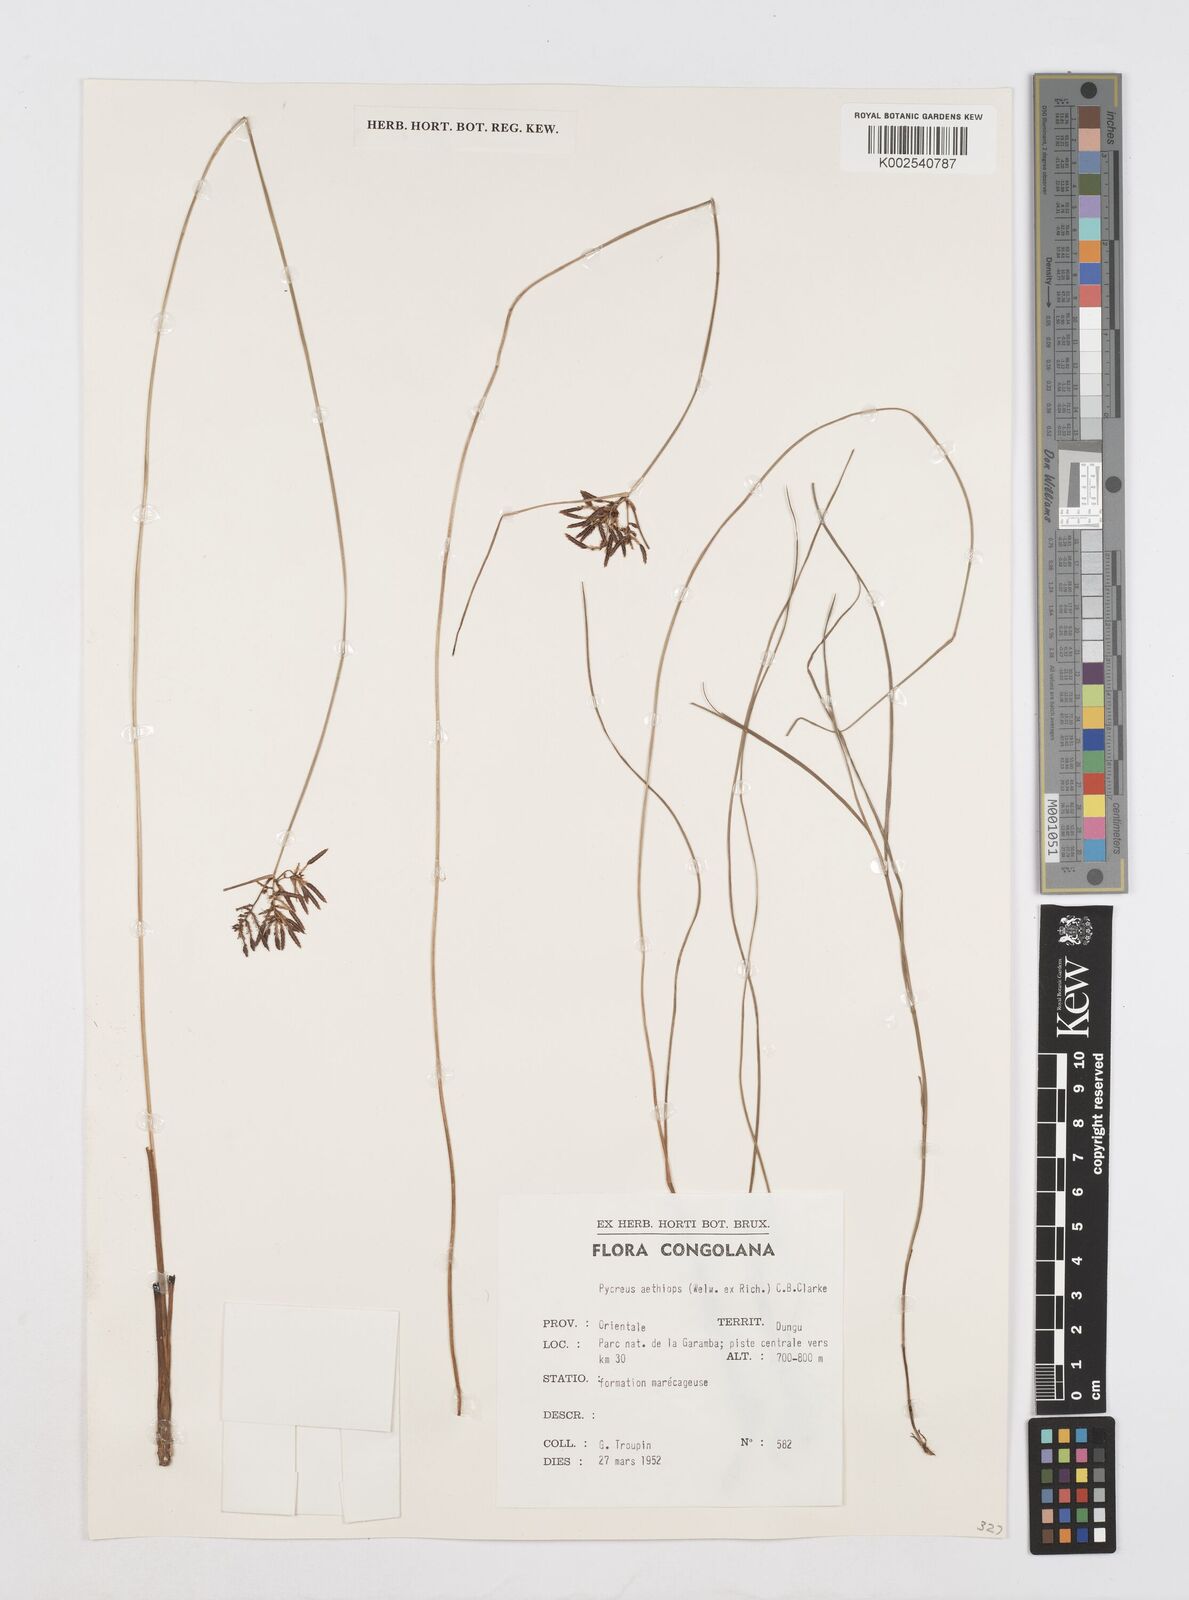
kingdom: Plantae
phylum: Tracheophyta
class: Liliopsida
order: Poales
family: Cyperaceae
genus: Cyperus
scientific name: Cyperus aethiops
